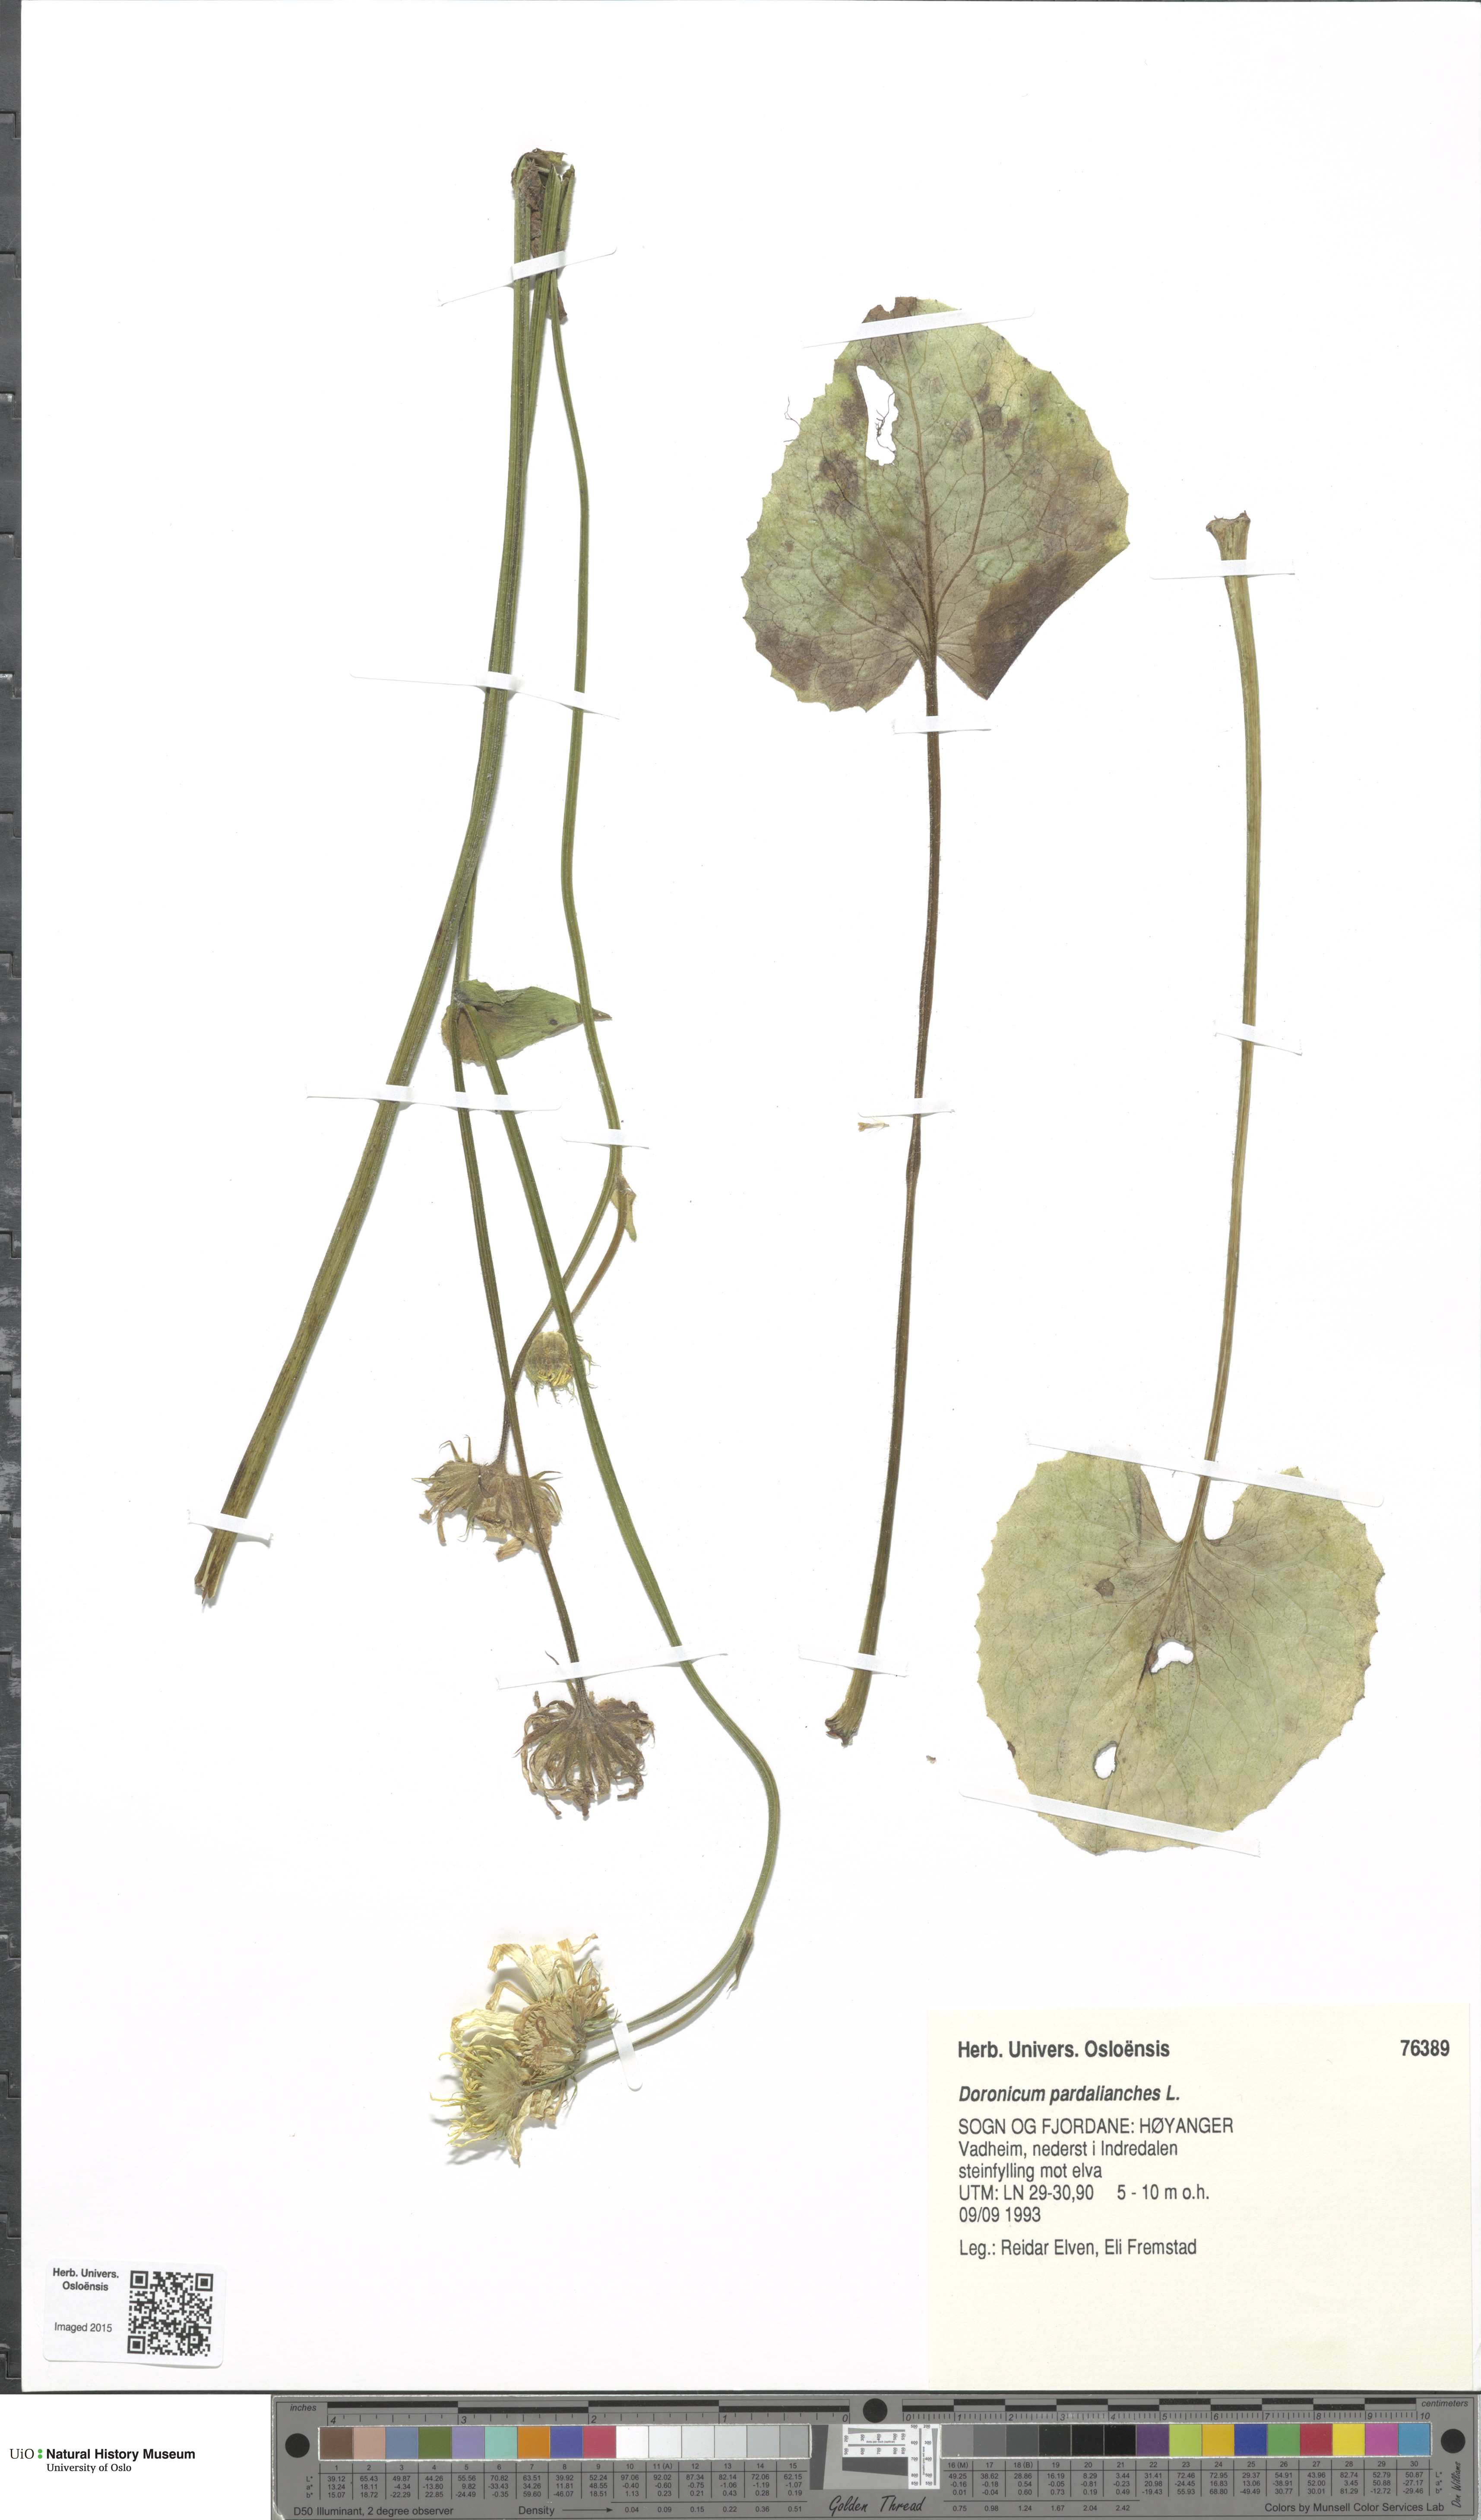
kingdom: Plantae
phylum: Tracheophyta
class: Magnoliopsida
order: Asterales
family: Asteraceae
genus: Doronicum
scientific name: Doronicum pardalianches
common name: Leopard's-bane
